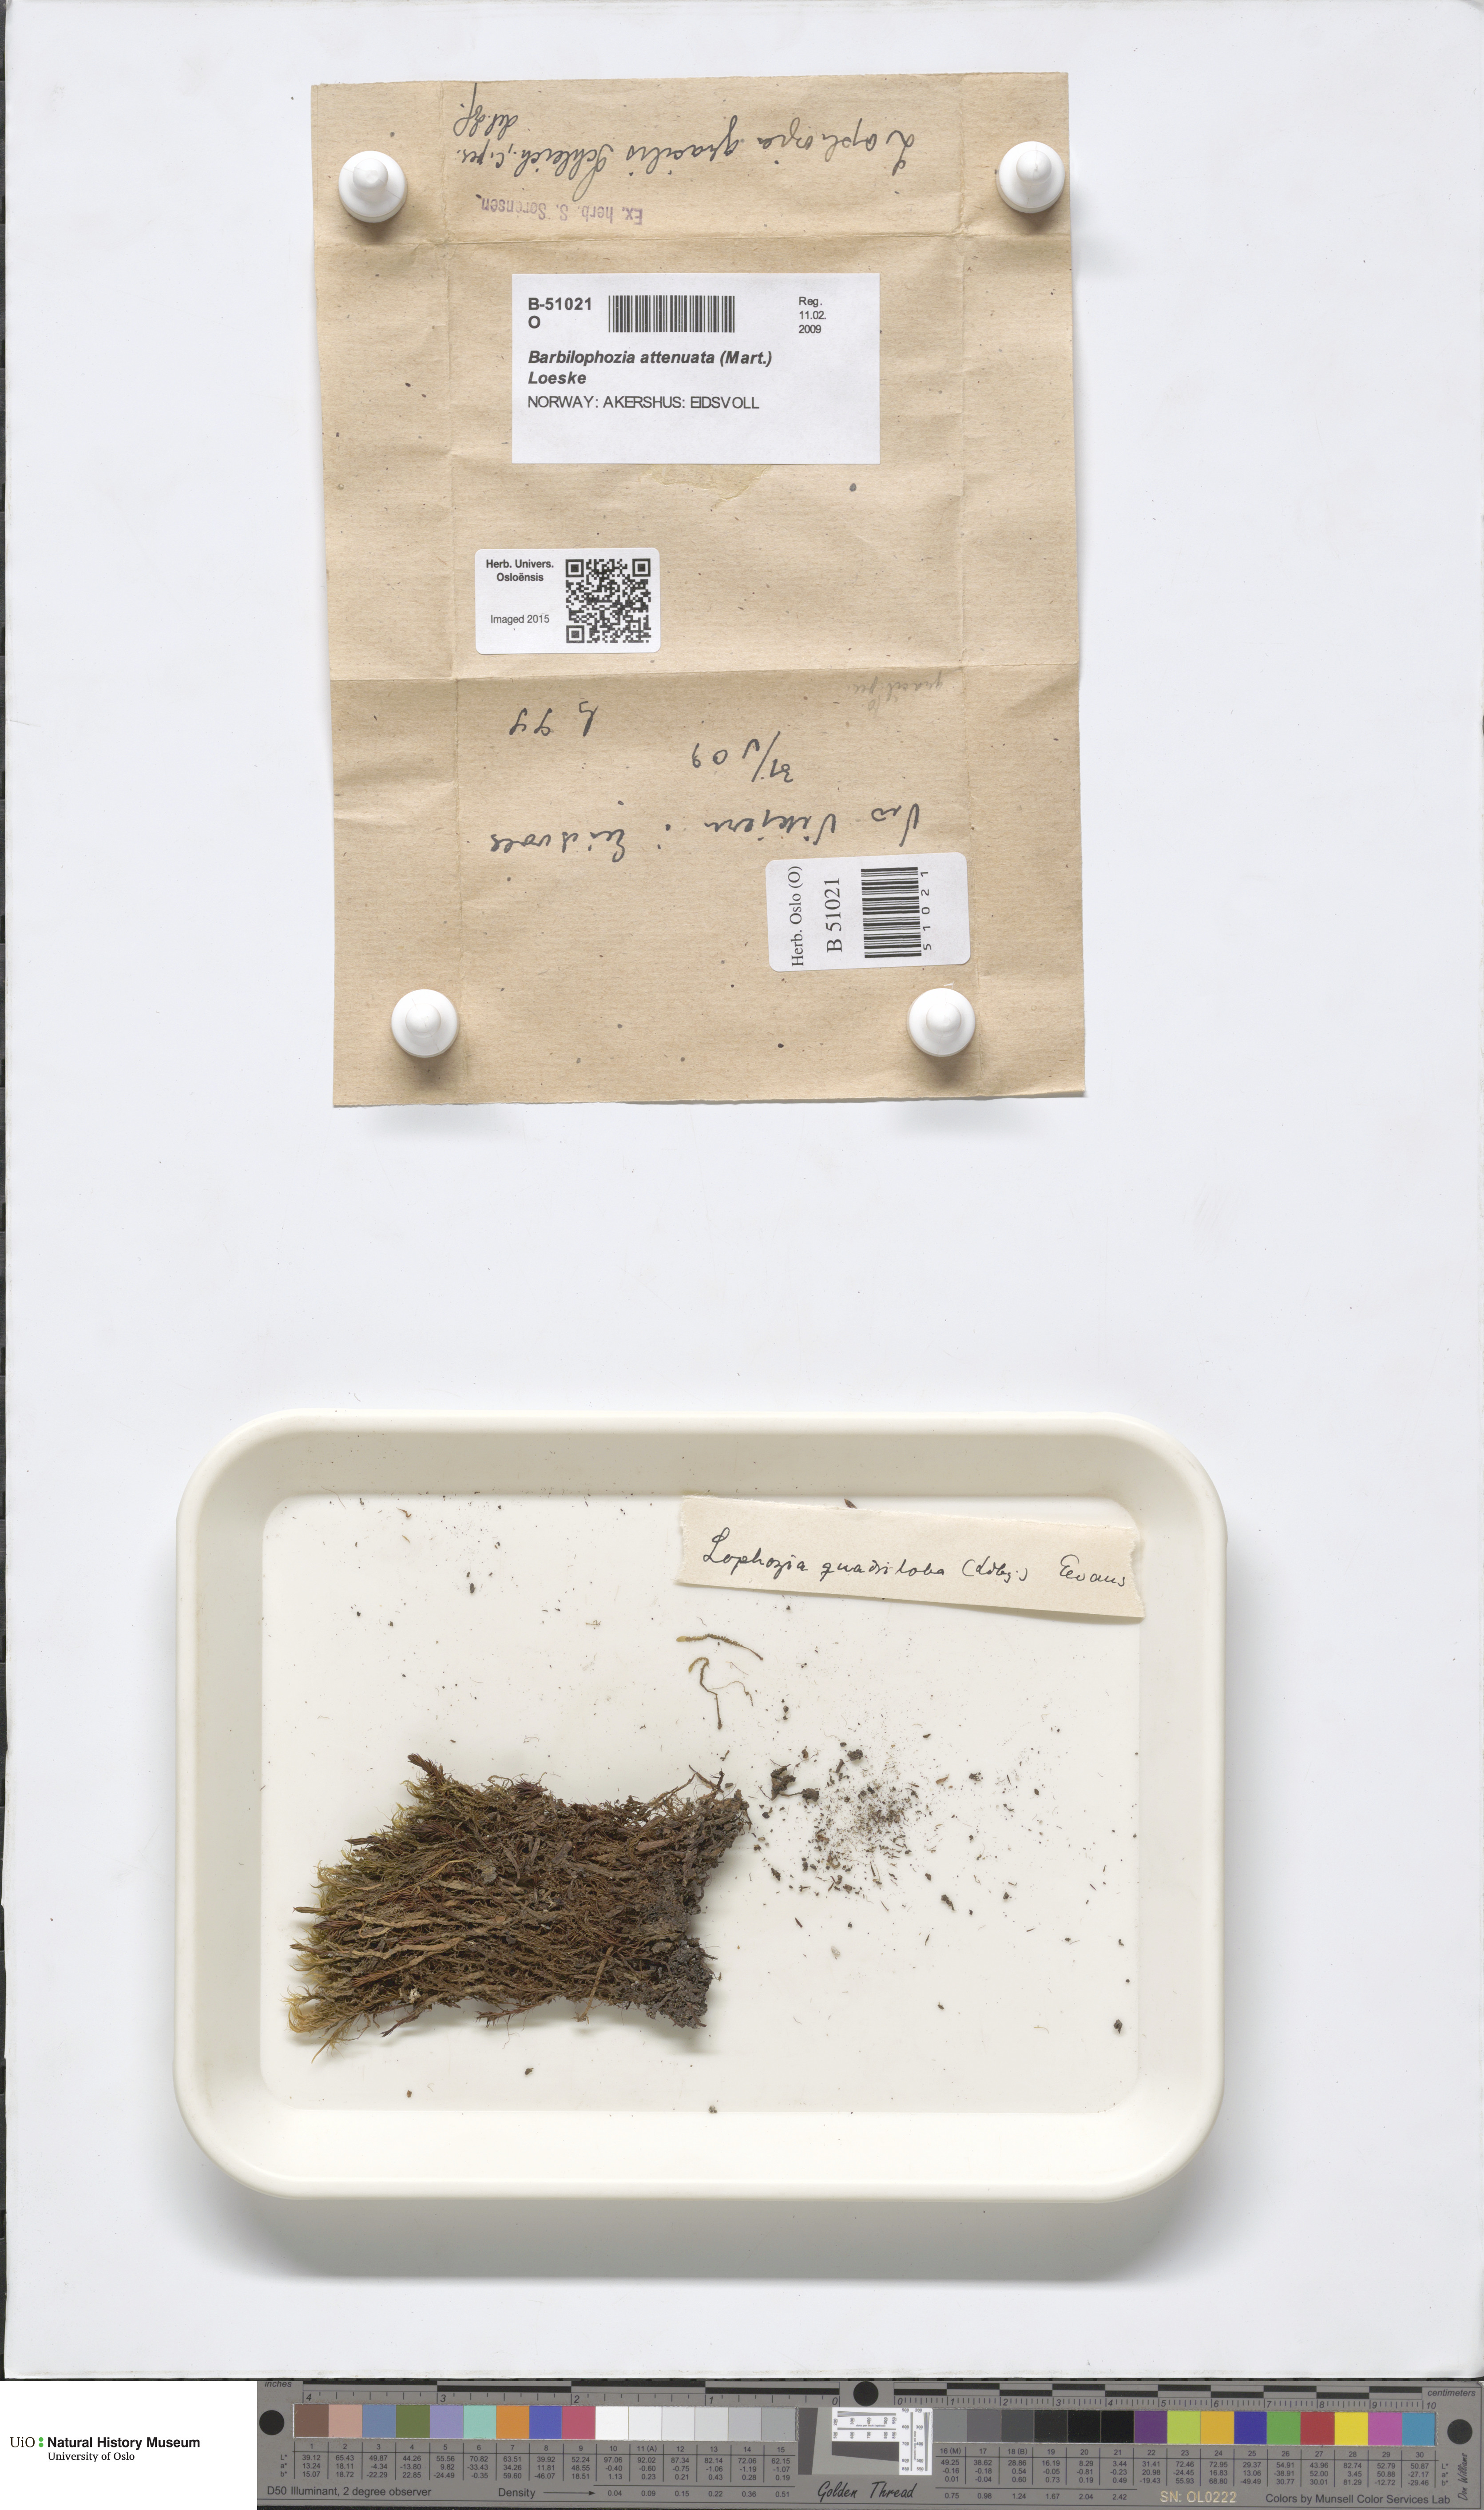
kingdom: Plantae
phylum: Marchantiophyta
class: Jungermanniopsida
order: Jungermanniales
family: Anastrophyllaceae
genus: Neoorthocaulis
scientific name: Neoorthocaulis attenuatus
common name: Trunk pawwort
